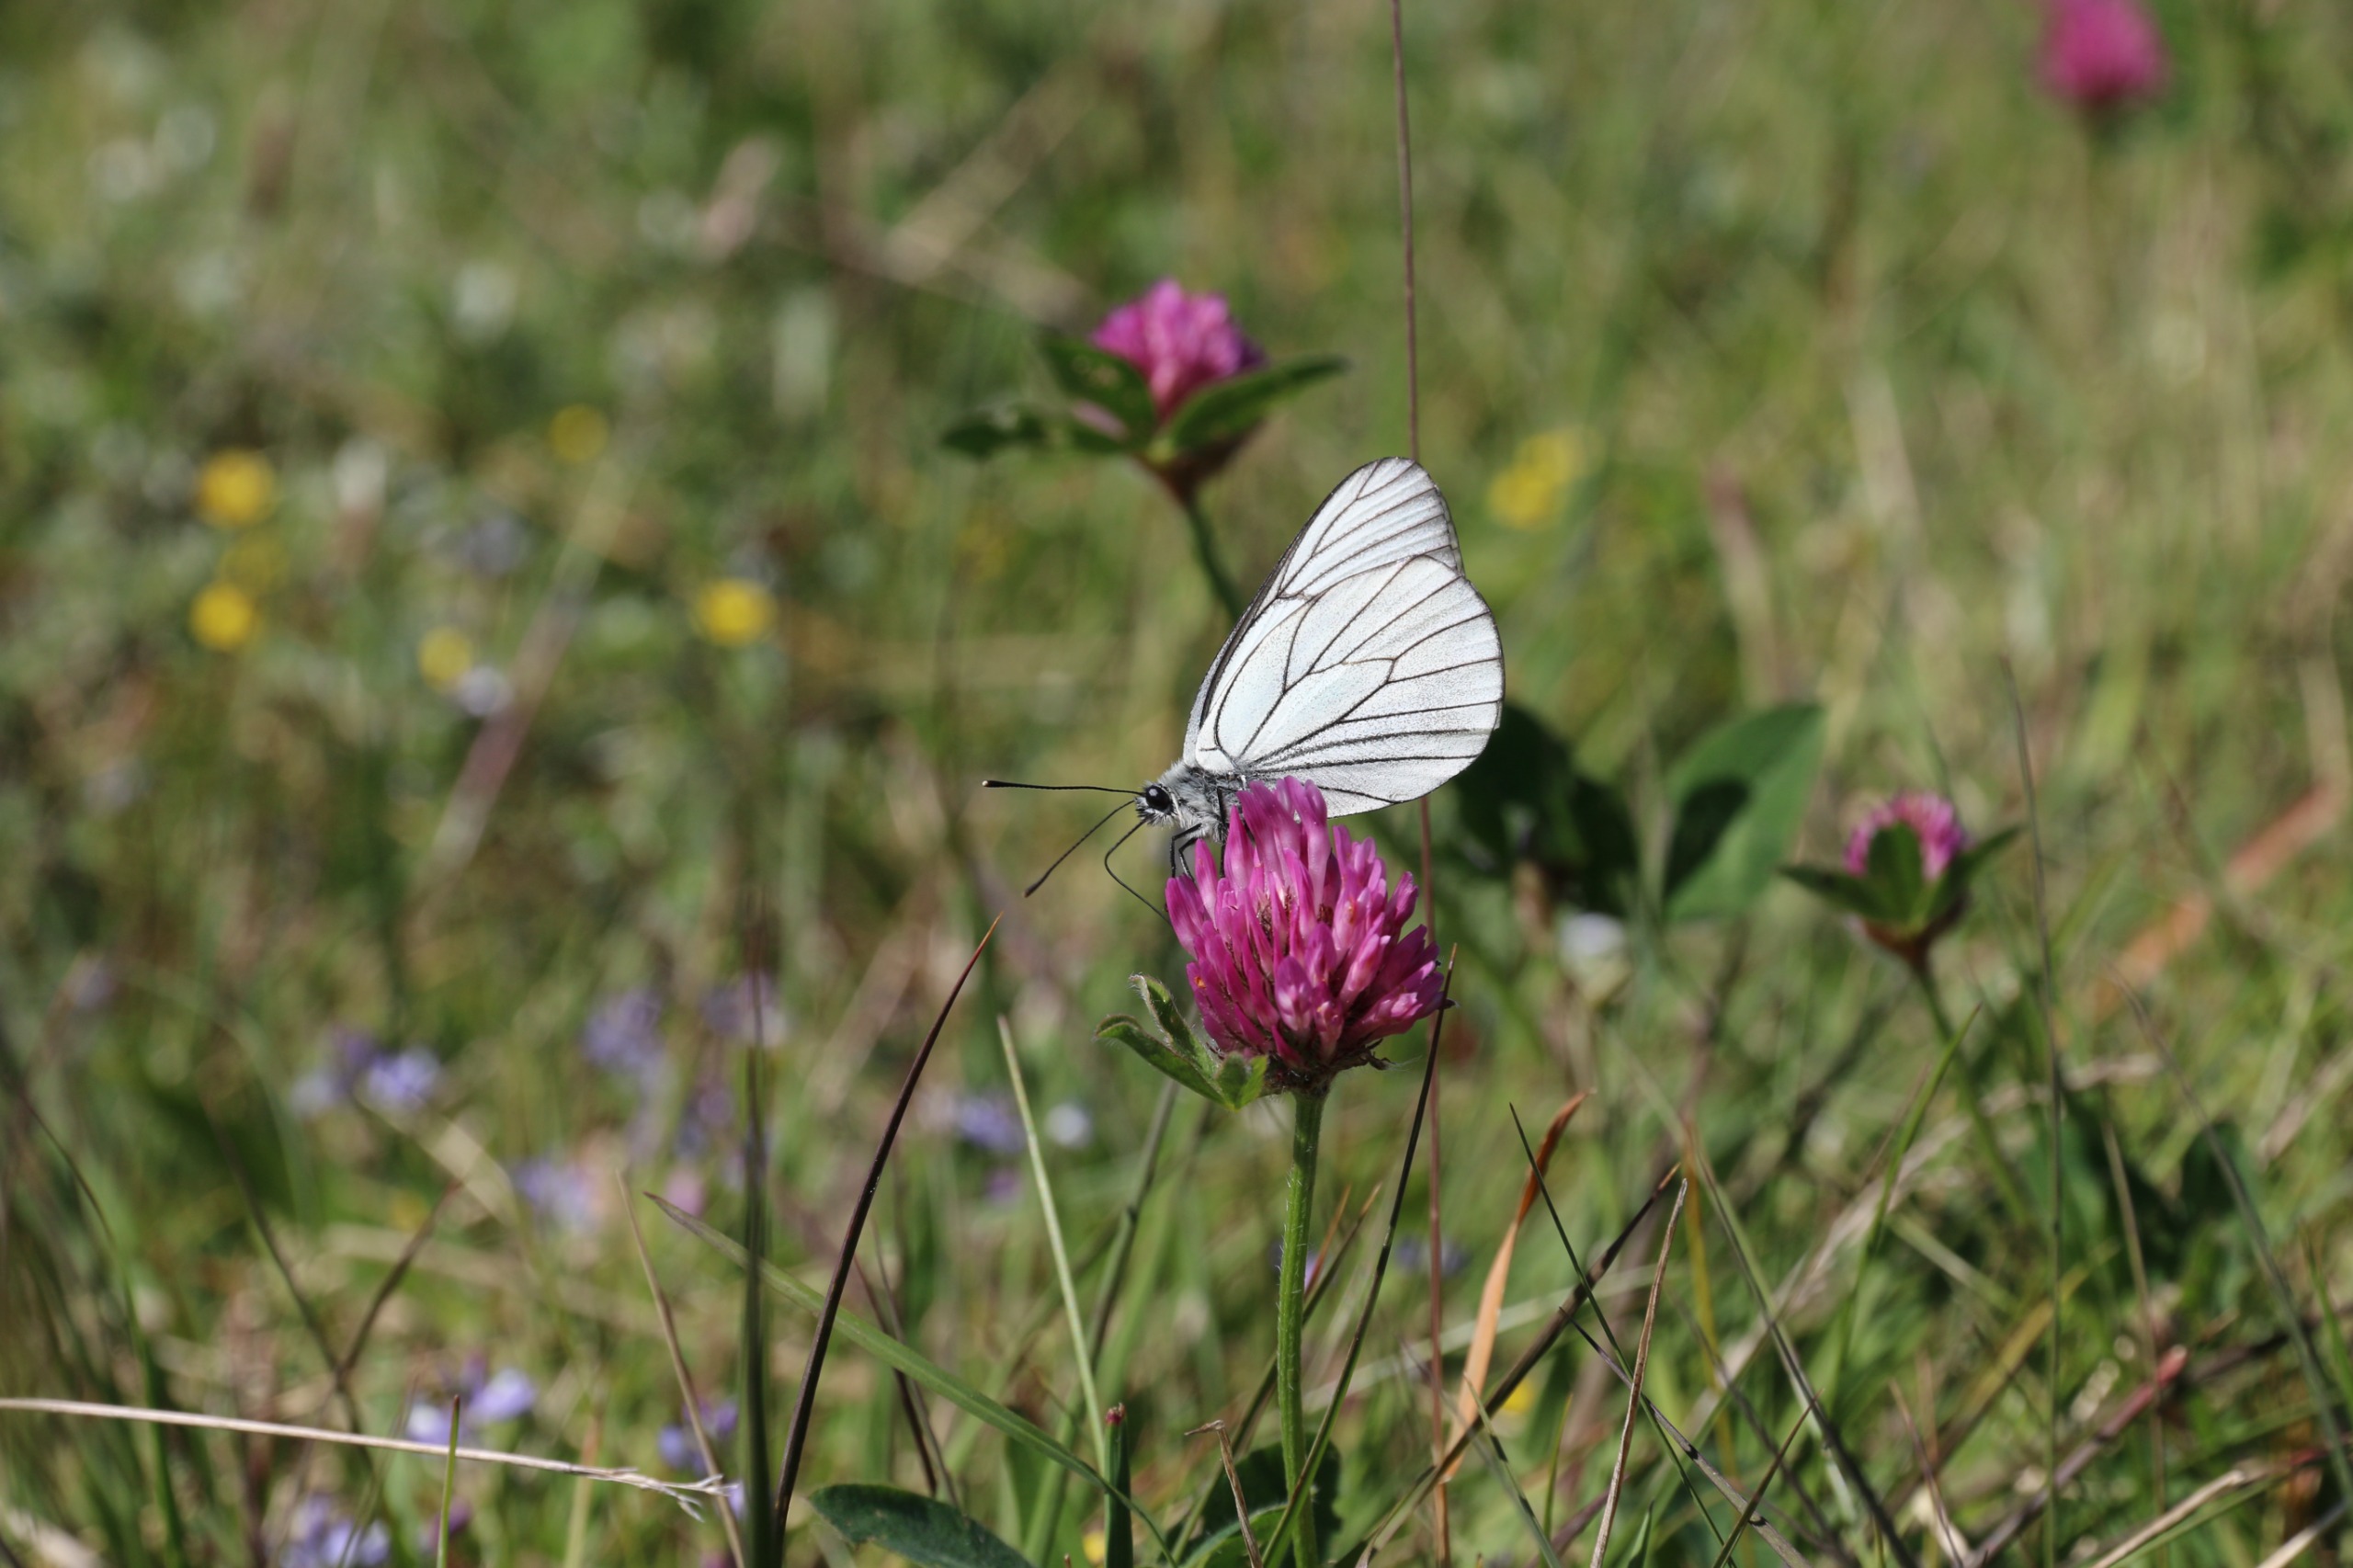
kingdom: Animalia
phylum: Arthropoda
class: Insecta
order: Lepidoptera
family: Pieridae
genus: Aporia
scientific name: Aporia crataegi
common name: Sortåret hvidvinge
